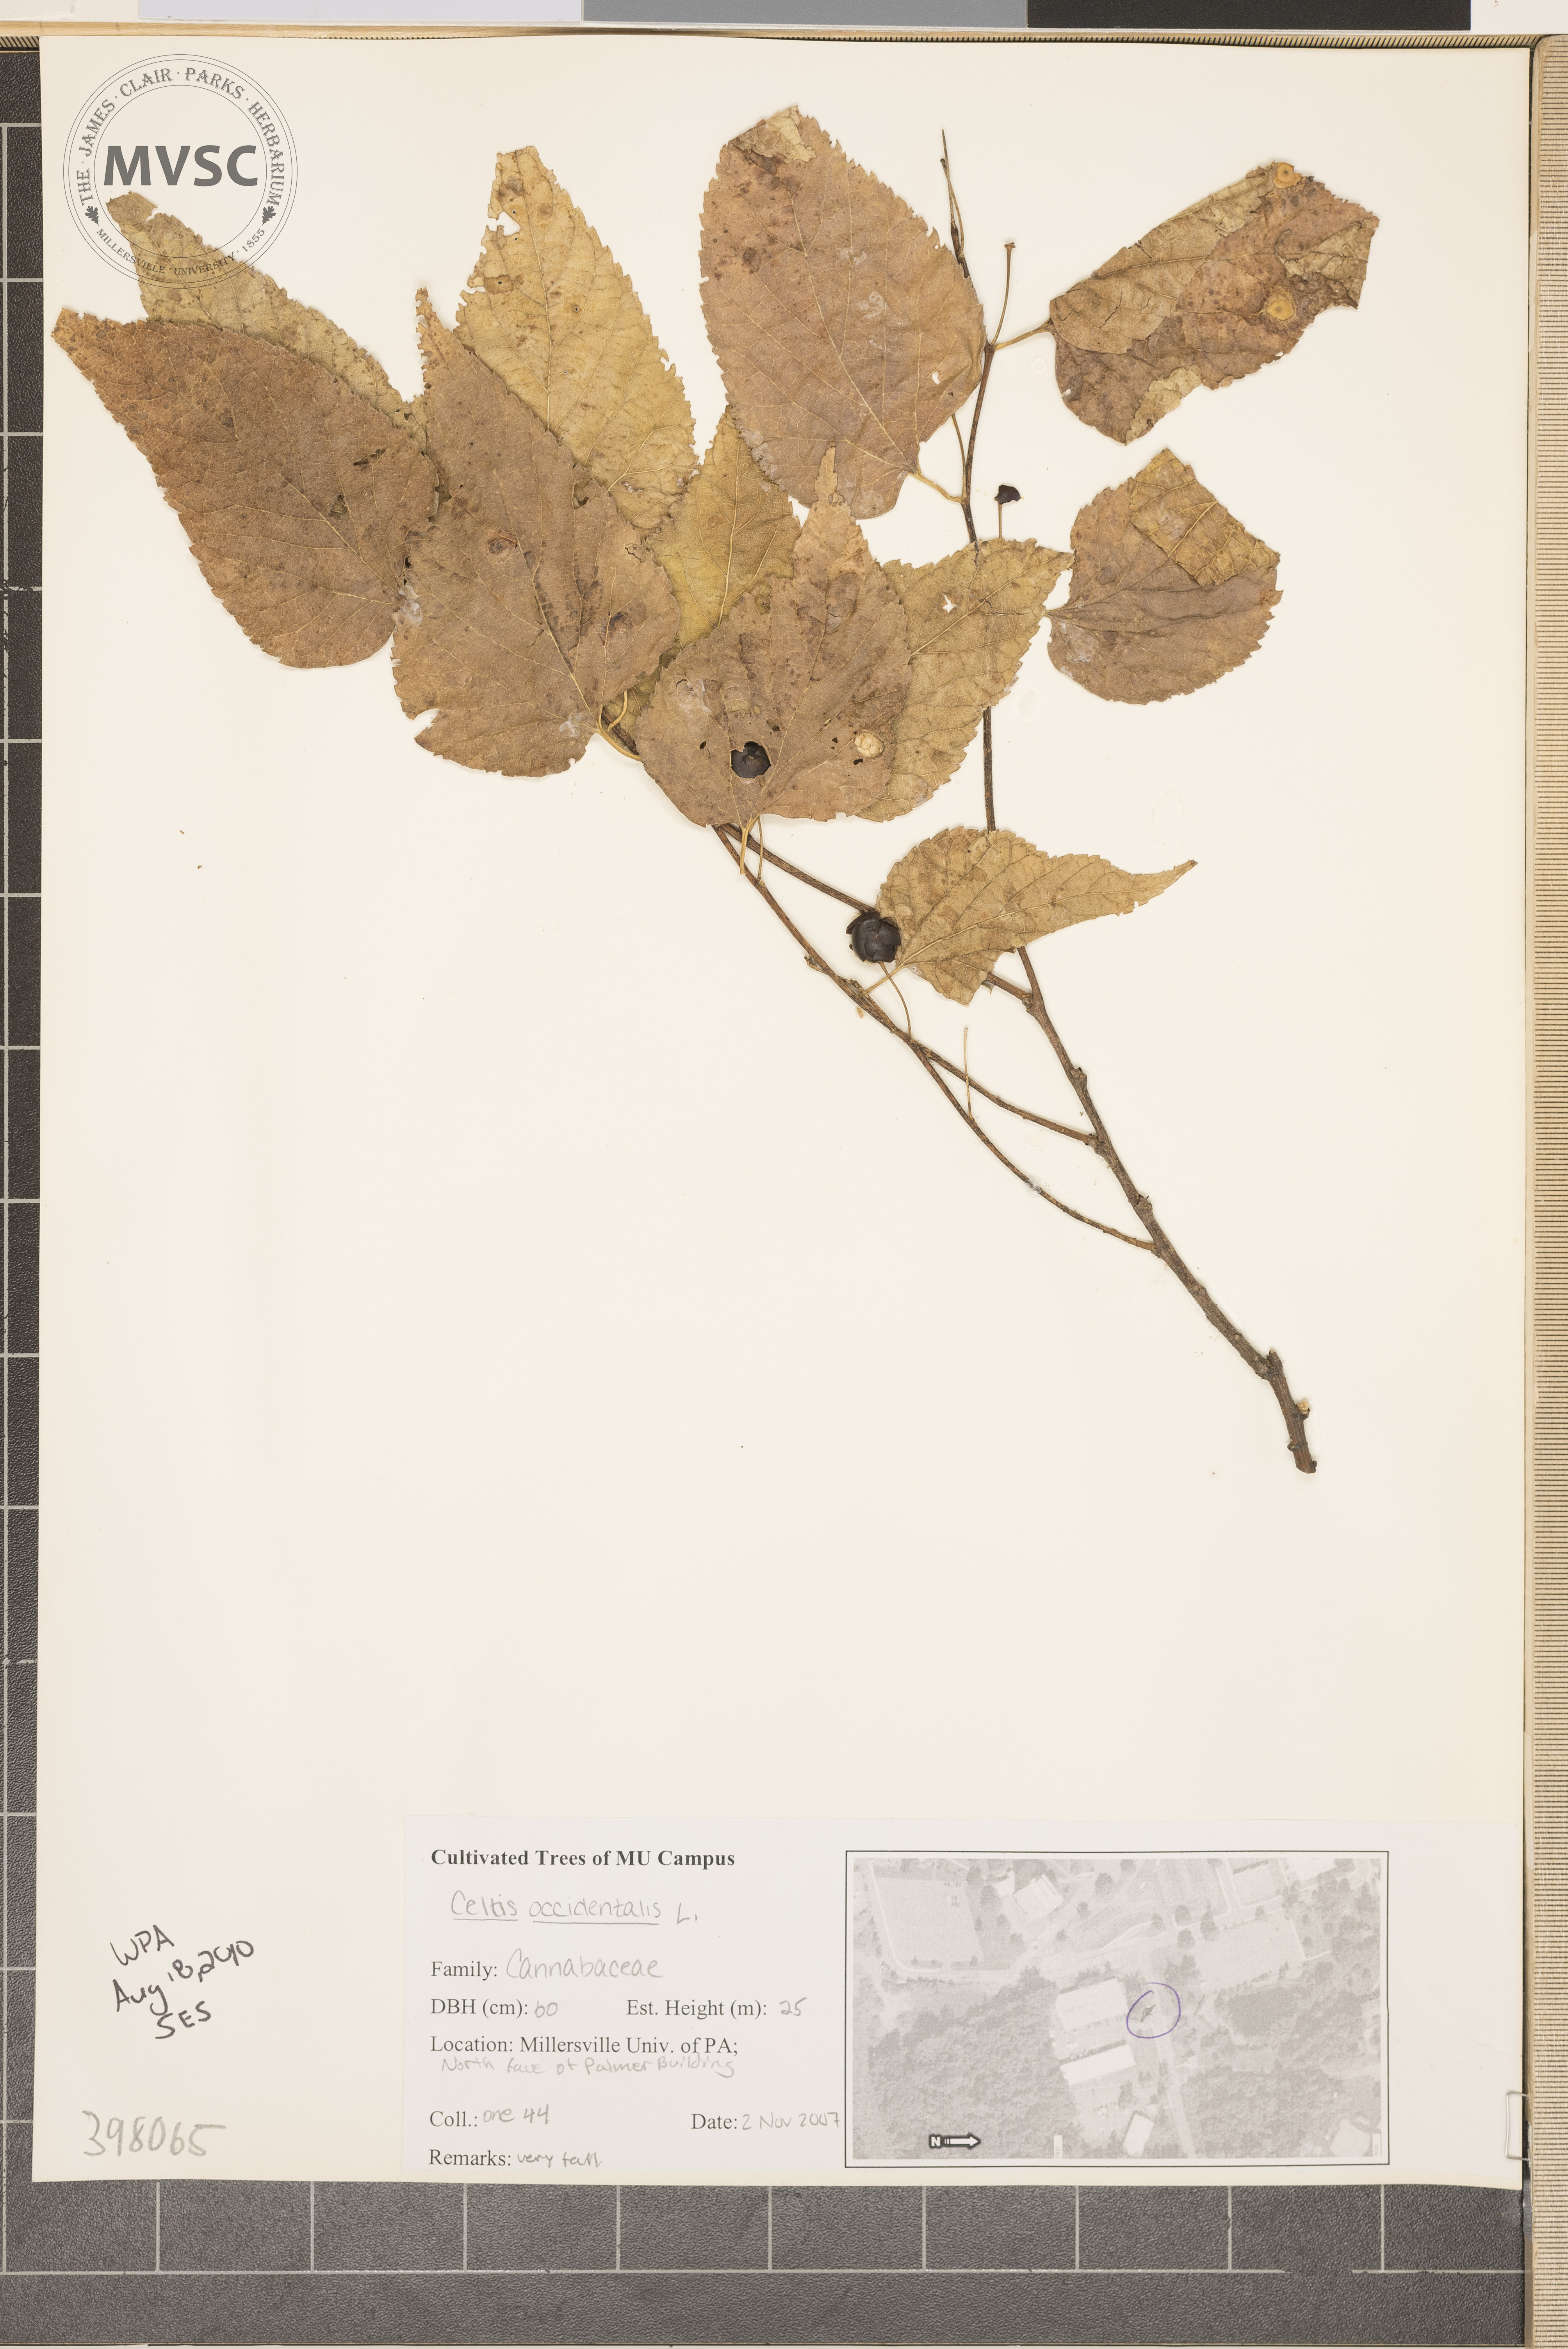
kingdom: Plantae
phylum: Tracheophyta
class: Magnoliopsida
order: Rosales
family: Cannabaceae
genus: Celtis
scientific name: Celtis occidentalis
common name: Dogberry
